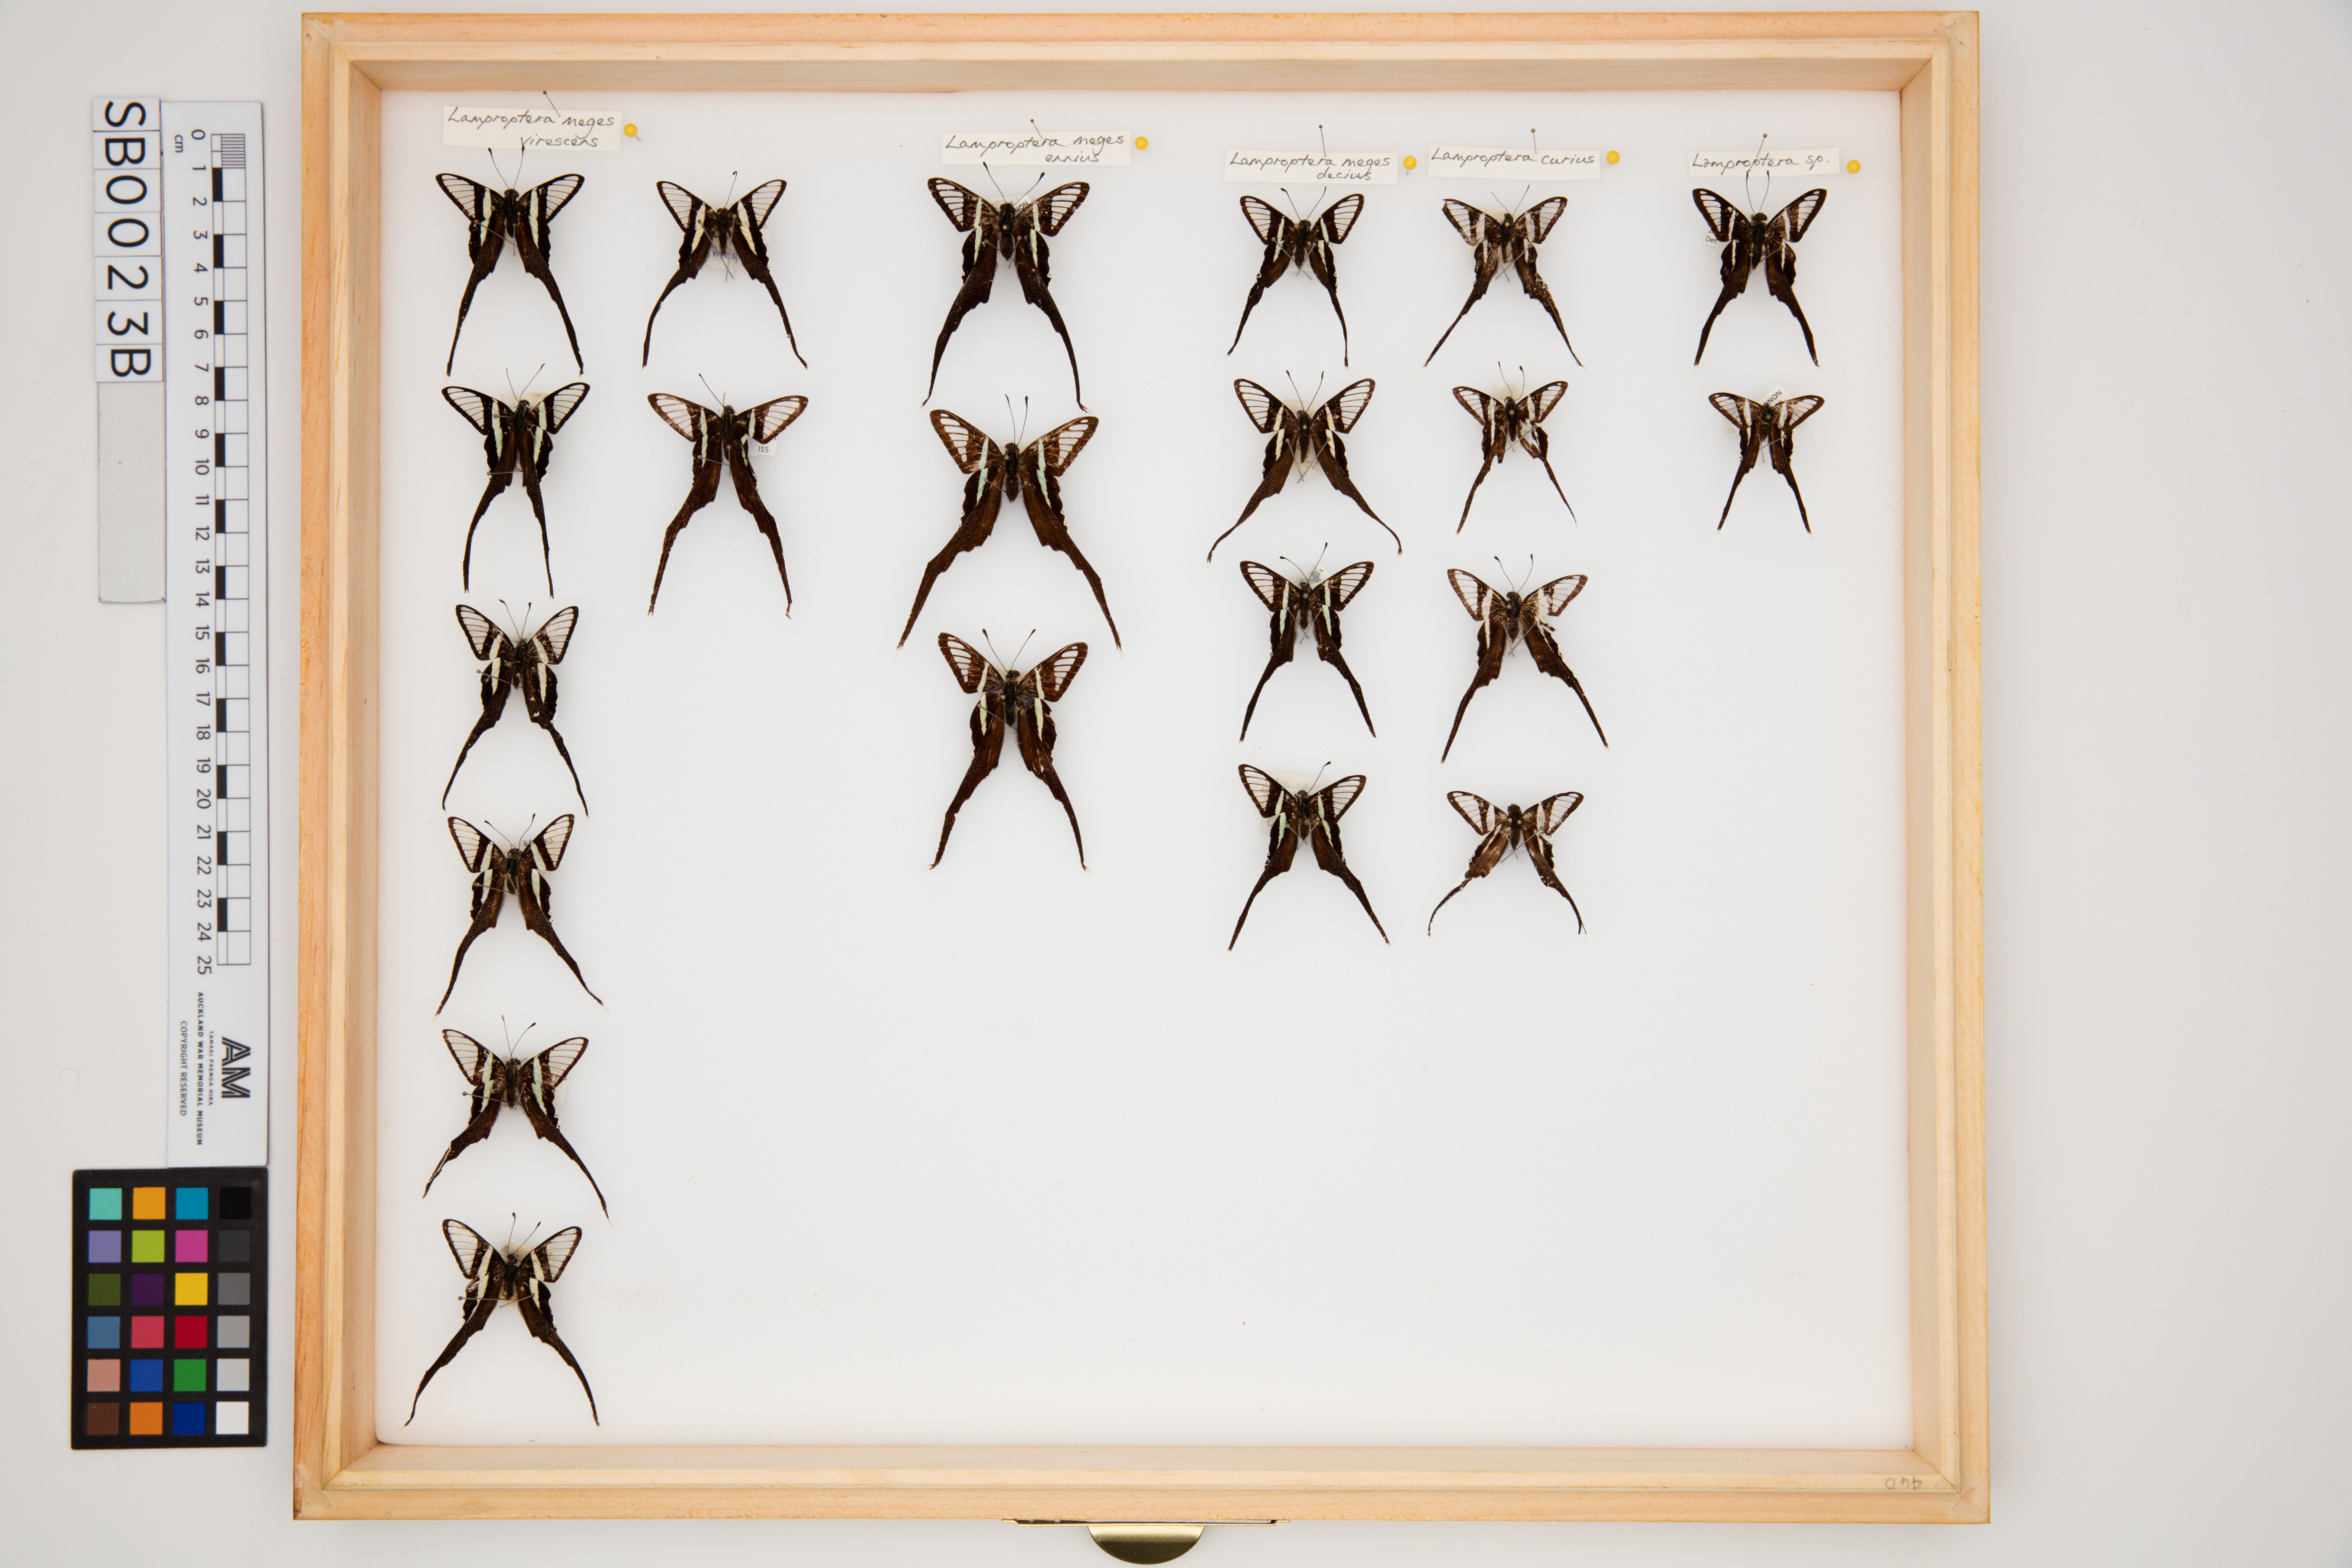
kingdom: Animalia
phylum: Arthropoda
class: Insecta
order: Lepidoptera
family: Papilionidae
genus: Lamproptera
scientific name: Lamproptera
